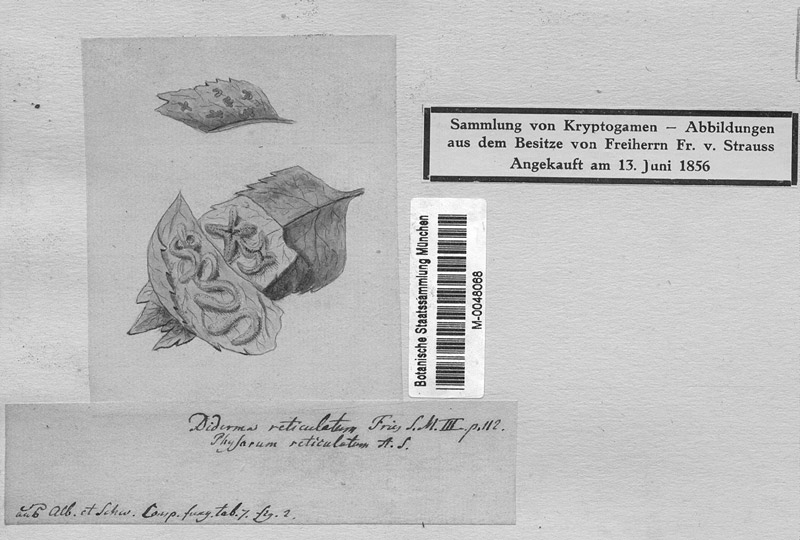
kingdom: Protozoa
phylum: Mycetozoa
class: Myxomycetes
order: Physarales
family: Physaraceae
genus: Willkommlangea
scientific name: Willkommlangea reticulata
